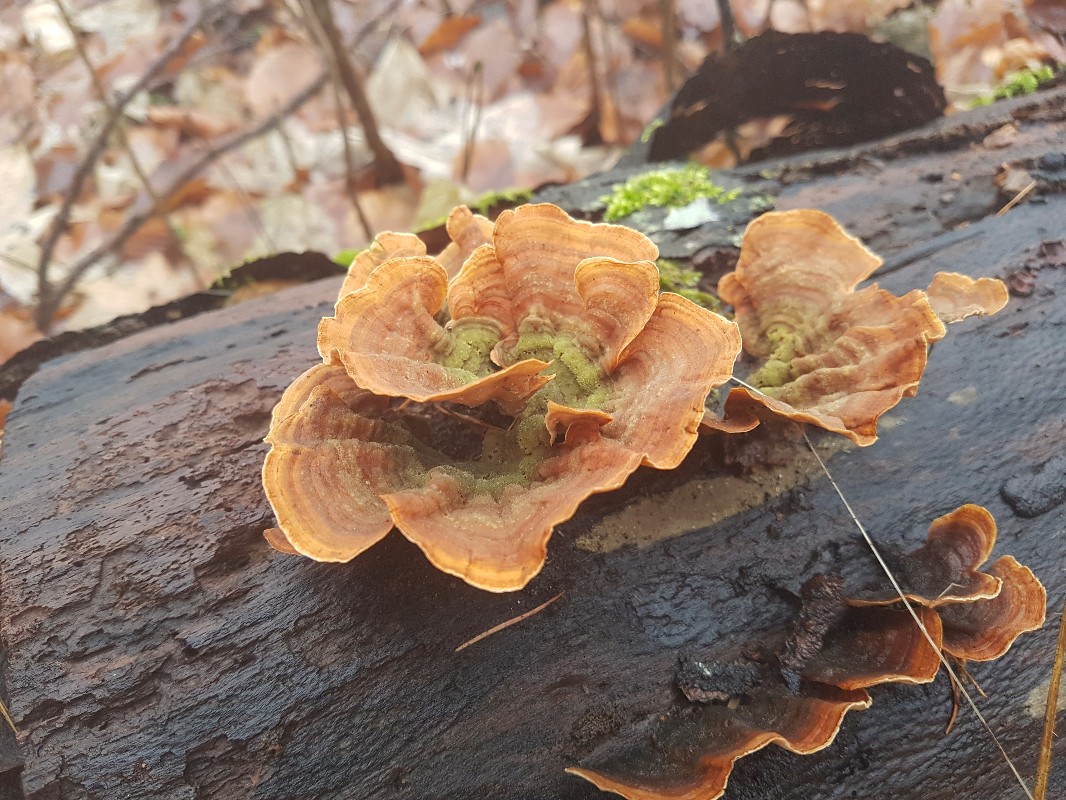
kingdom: Fungi
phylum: Basidiomycota
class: Agaricomycetes
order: Russulales
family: Stereaceae
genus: Stereum
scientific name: Stereum subtomentosum
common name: smuk lædersvamp
